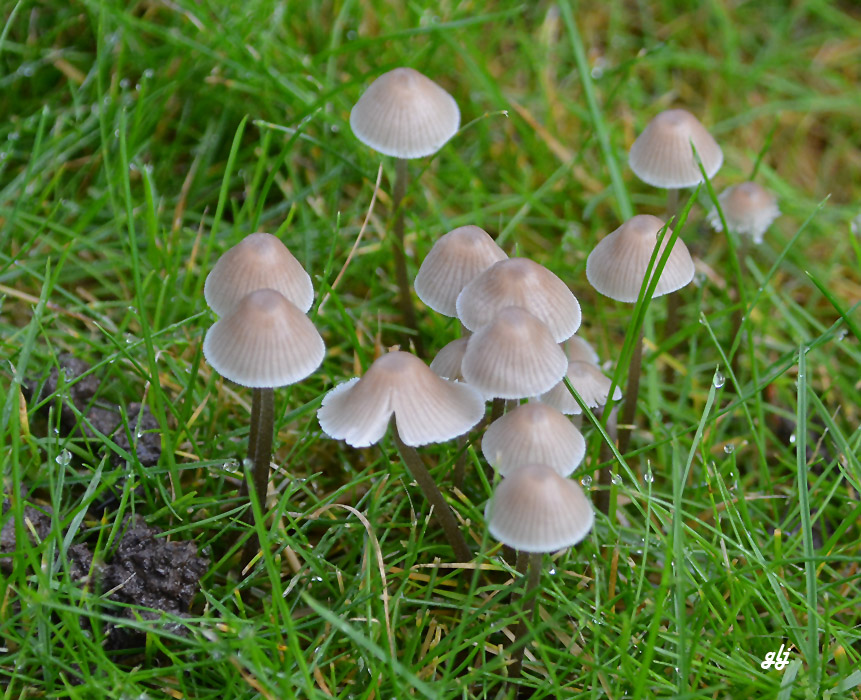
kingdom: Fungi
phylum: Basidiomycota
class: Agaricomycetes
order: Agaricales
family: Mycenaceae
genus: Mycena
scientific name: Mycena leptocephala
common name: klor-huesvamp
